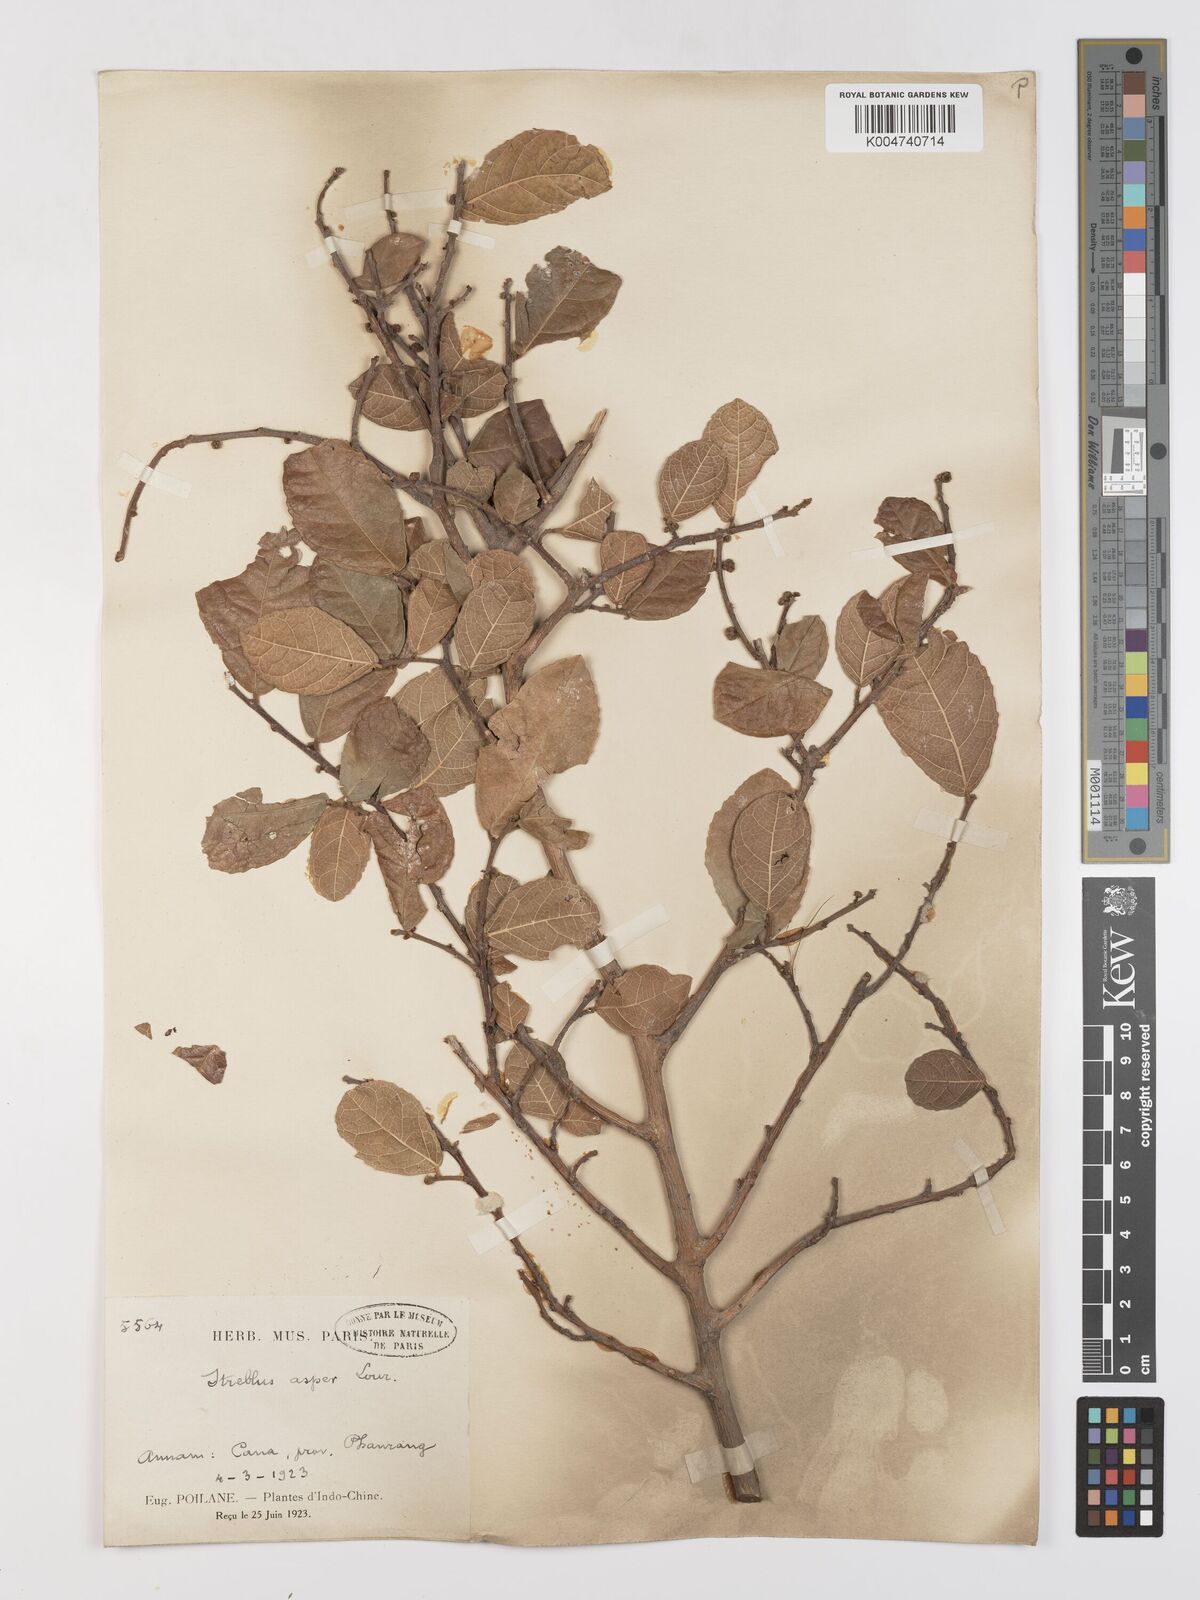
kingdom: Plantae
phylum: Tracheophyta
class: Magnoliopsida
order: Rosales
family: Moraceae
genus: Streblus
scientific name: Streblus asper
